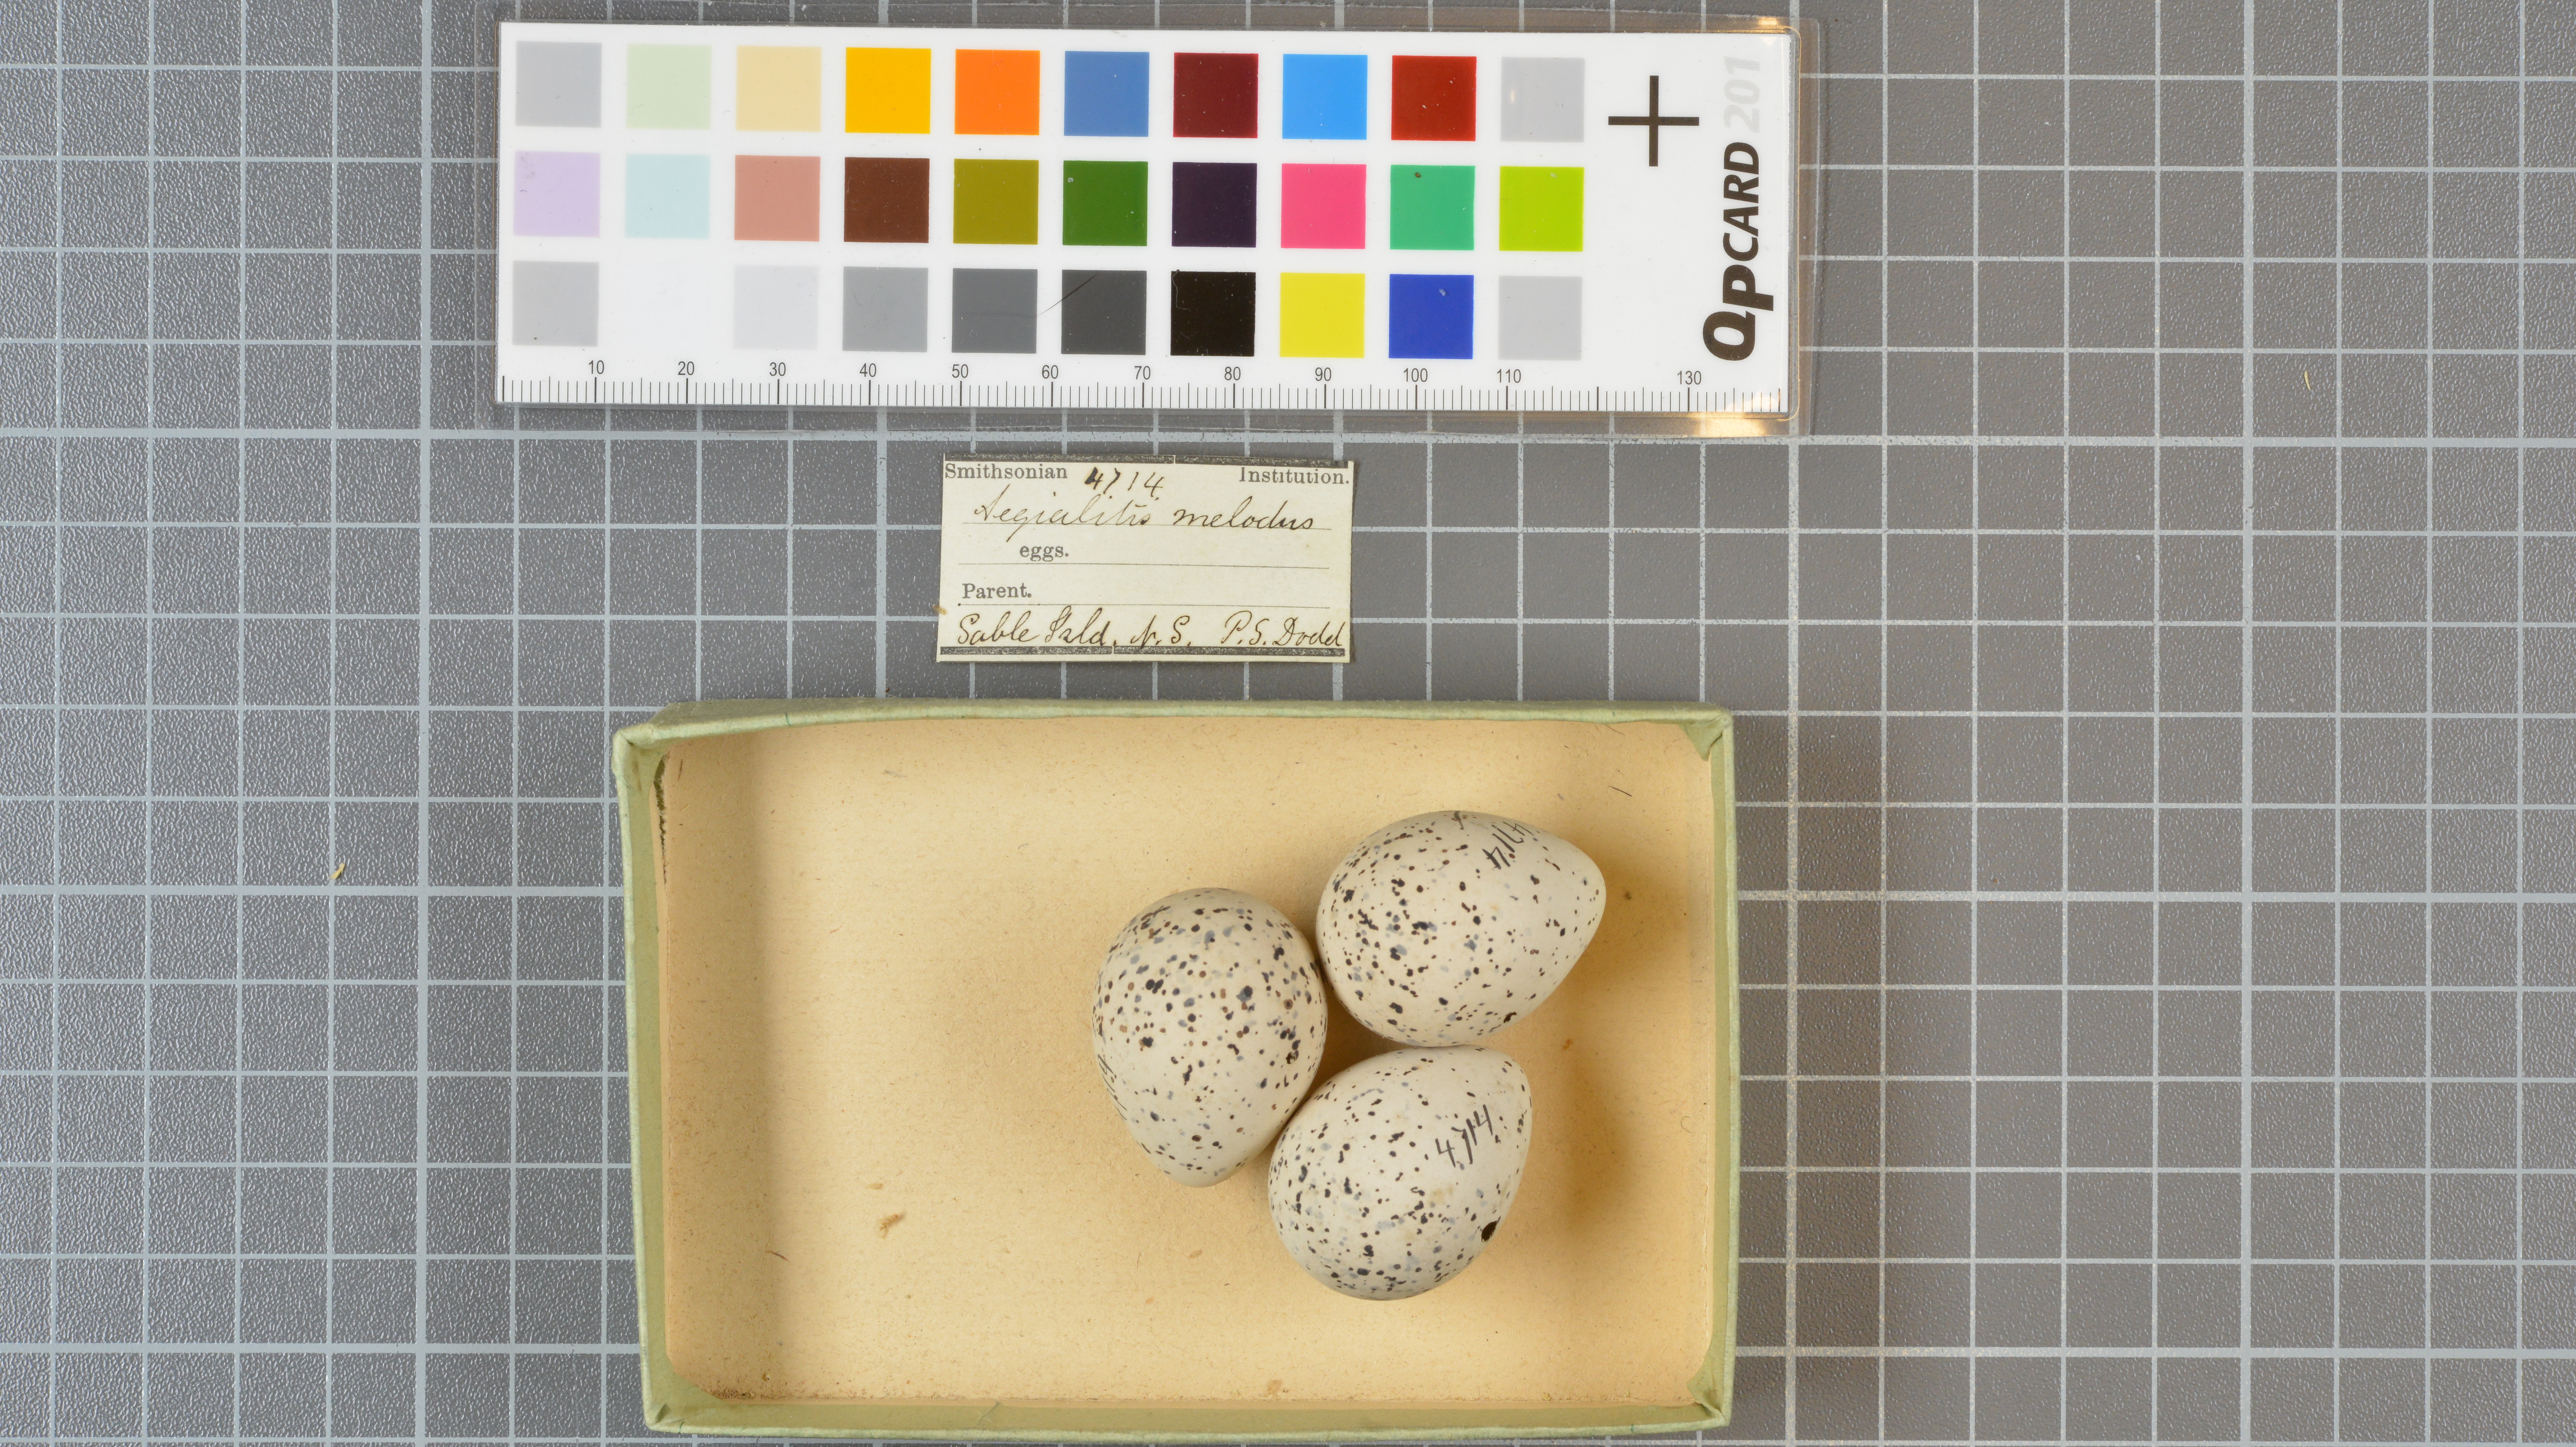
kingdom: Animalia
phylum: Chordata
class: Aves
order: Charadriiformes
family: Charadriidae
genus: Charadrius
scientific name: Charadrius melodus
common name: Piping plover
